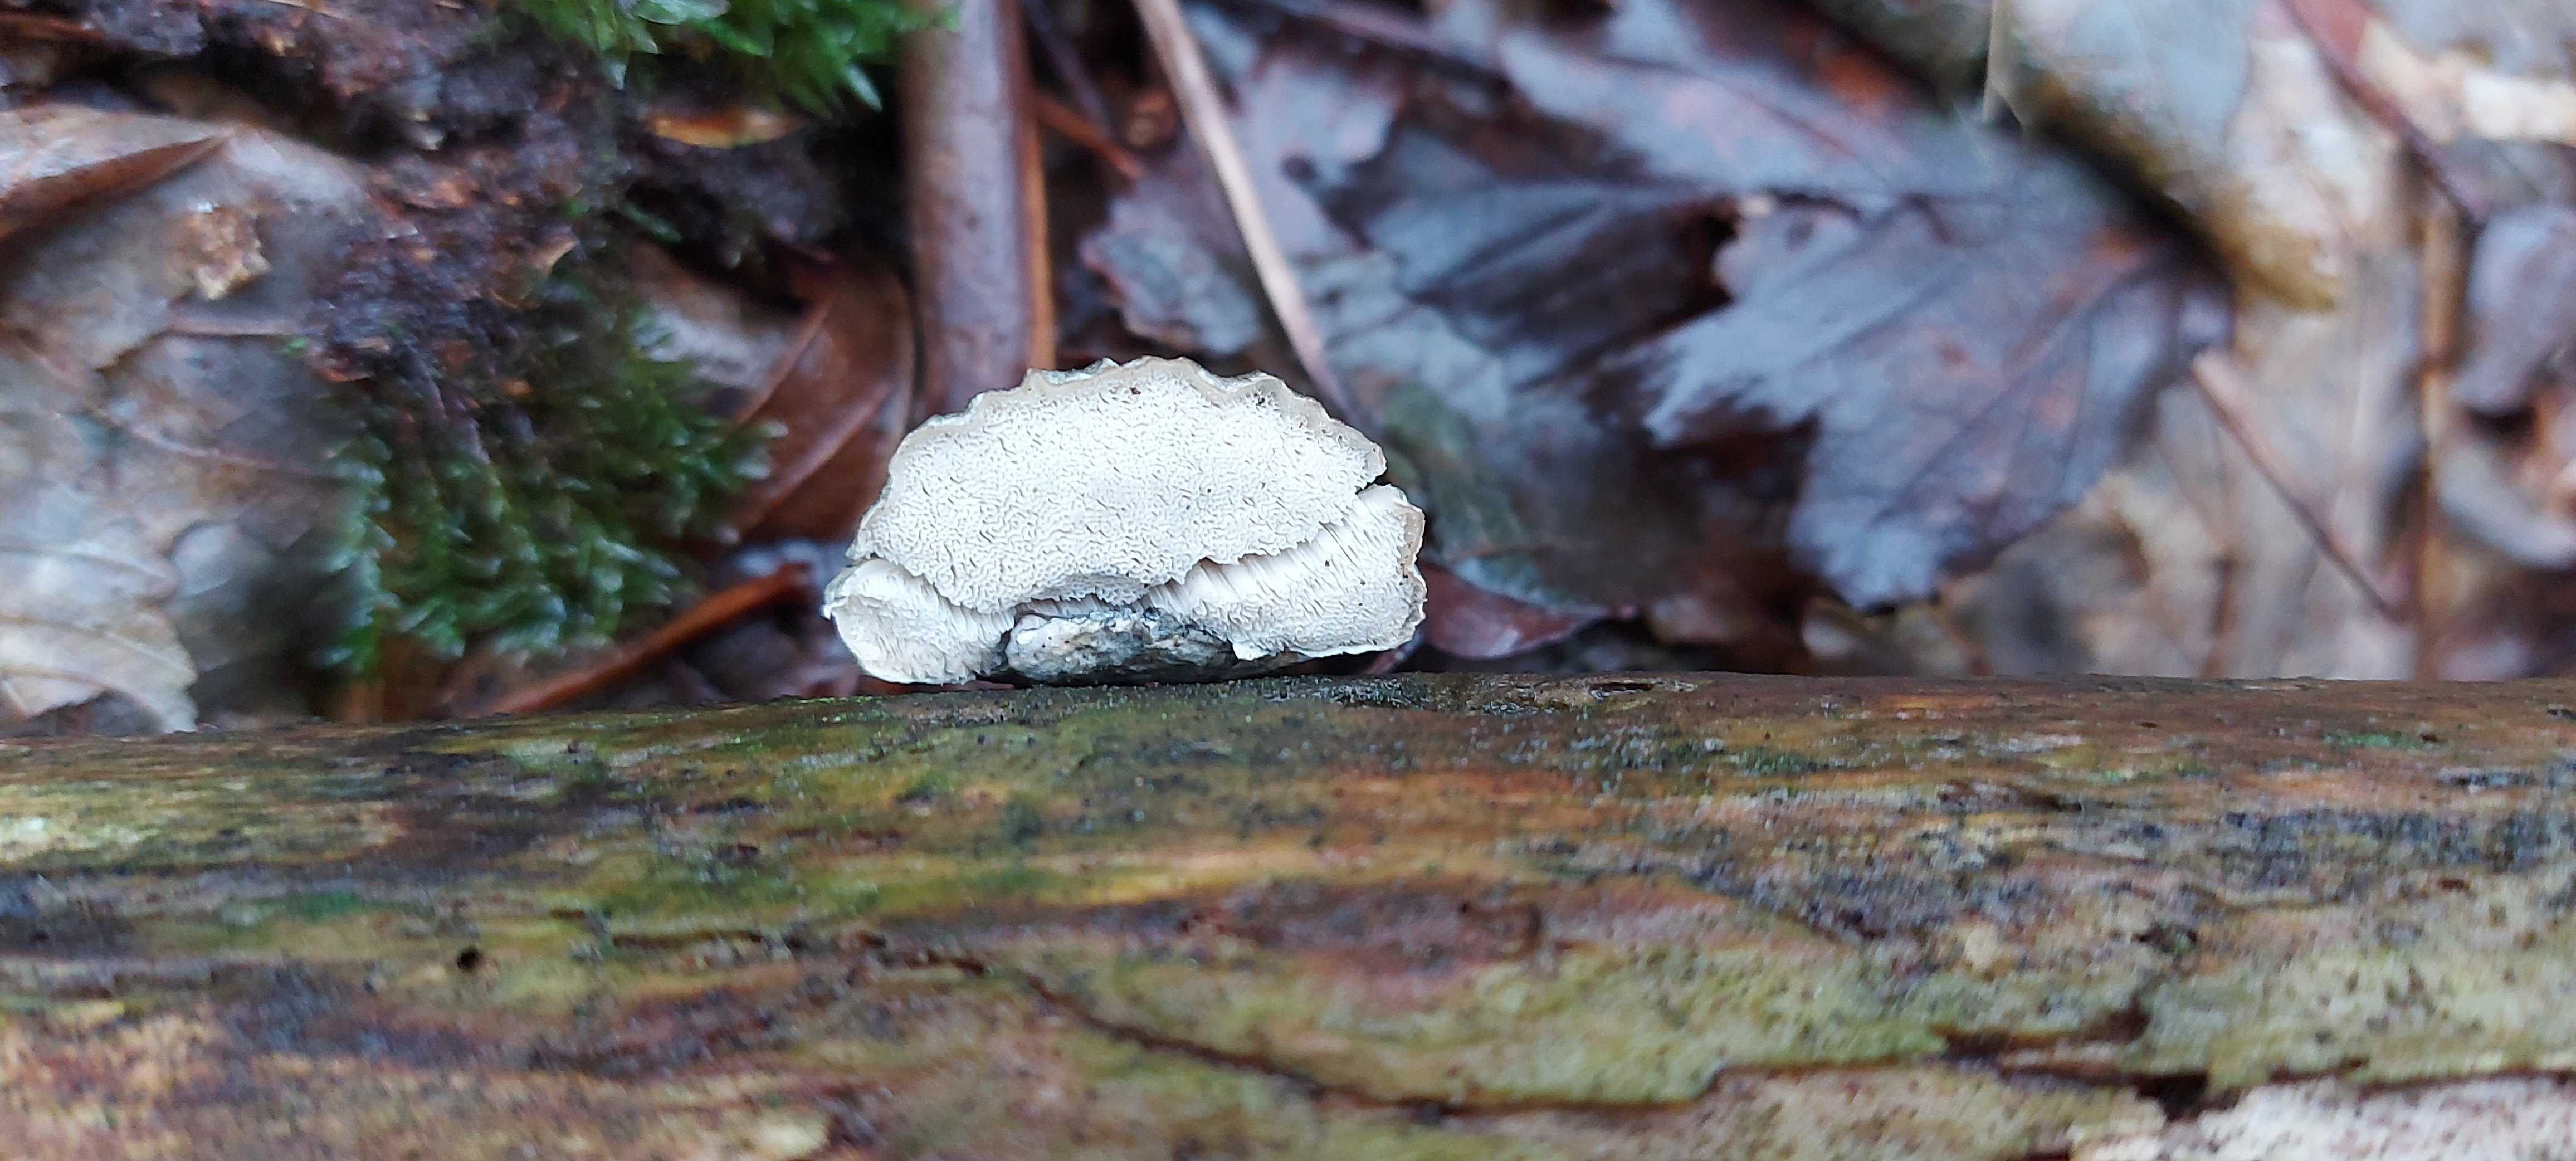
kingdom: Fungi
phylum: Basidiomycota
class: Agaricomycetes
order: Polyporales
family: Polyporaceae
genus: Cyanosporus
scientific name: Cyanosporus alni
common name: blegblå kødporesvamp
